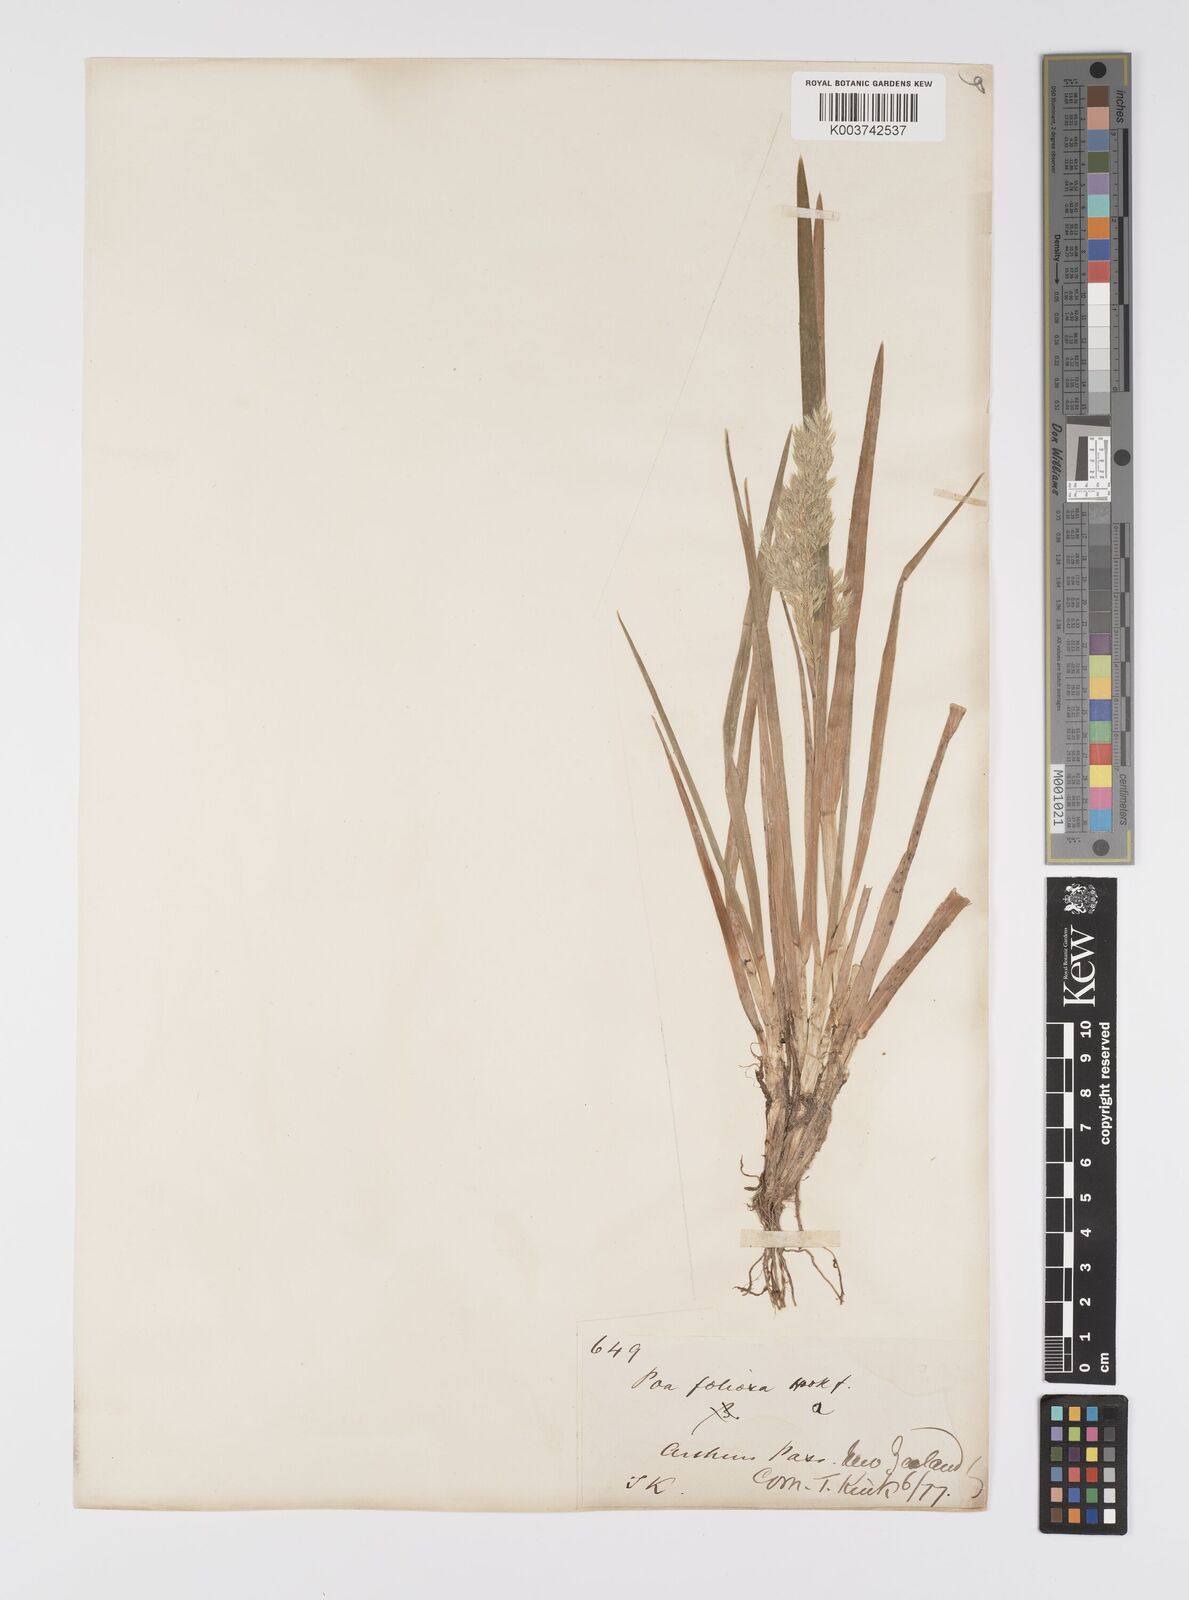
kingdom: Plantae
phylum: Tracheophyta
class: Liliopsida
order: Poales
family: Poaceae
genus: Poa
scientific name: Poa novae-zelandiae
